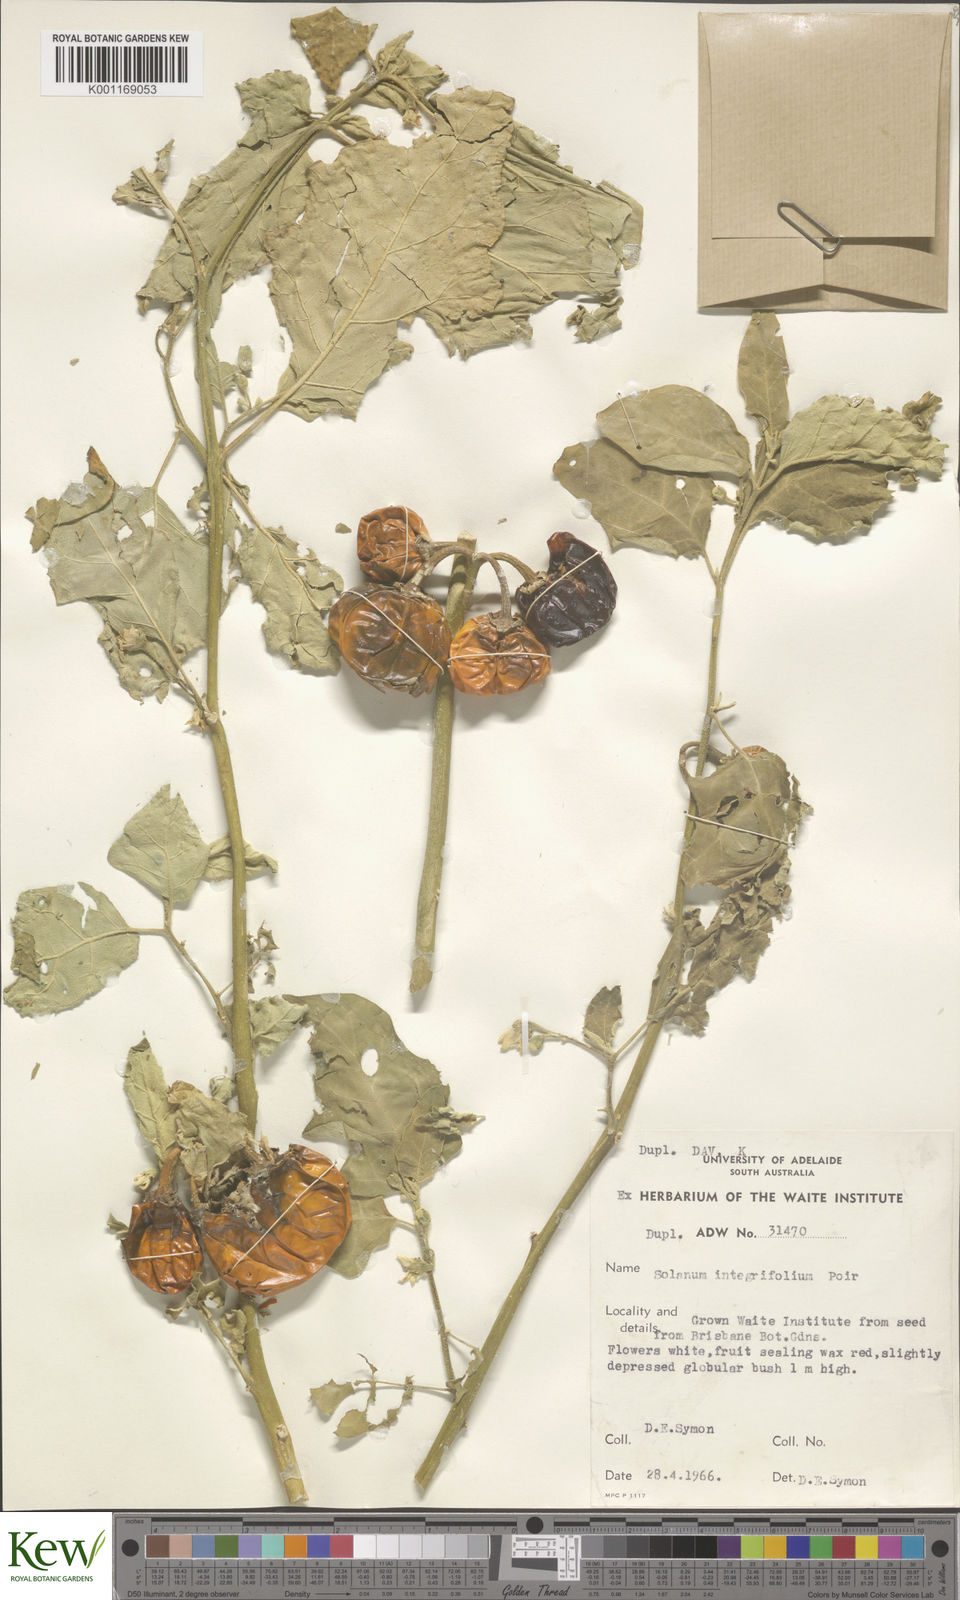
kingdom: Plantae
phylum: Tracheophyta
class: Magnoliopsida
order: Solanales
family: Solanaceae
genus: Solanum
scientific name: Solanum aethiopicum
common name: Gilo
